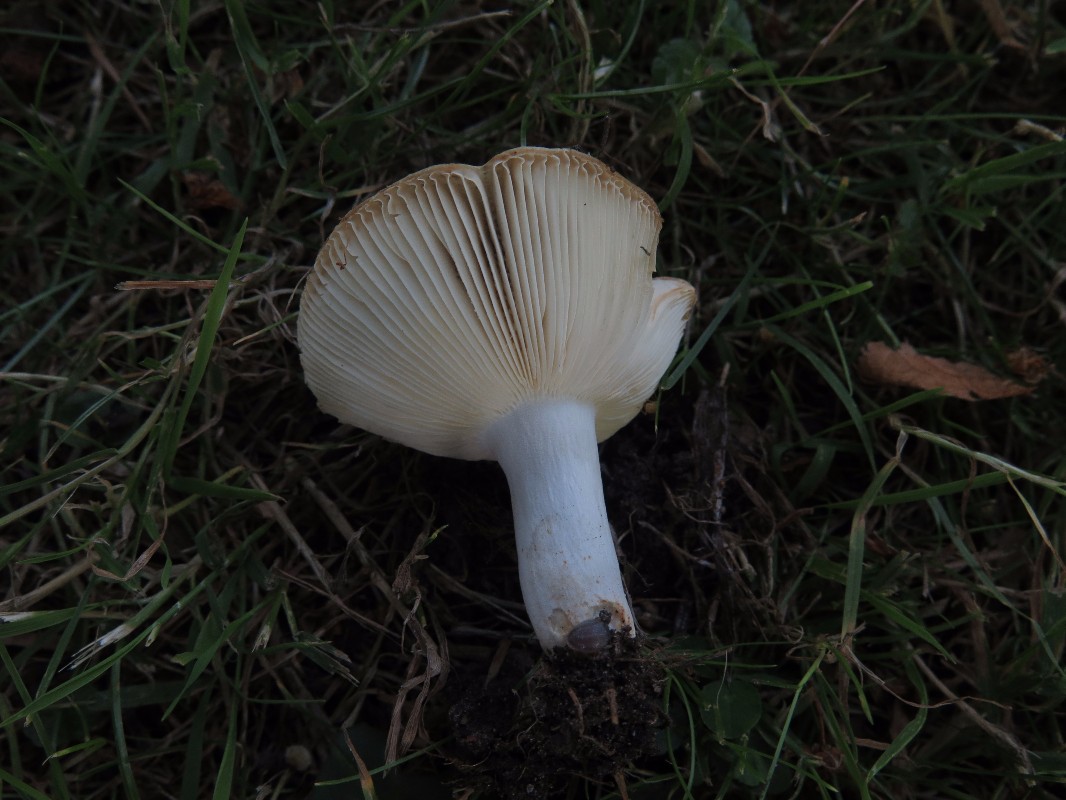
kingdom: Fungi
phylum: Basidiomycota
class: Agaricomycetes
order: Russulales
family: Russulaceae
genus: Russula
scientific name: Russula sororia
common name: brun kam-skørhat
